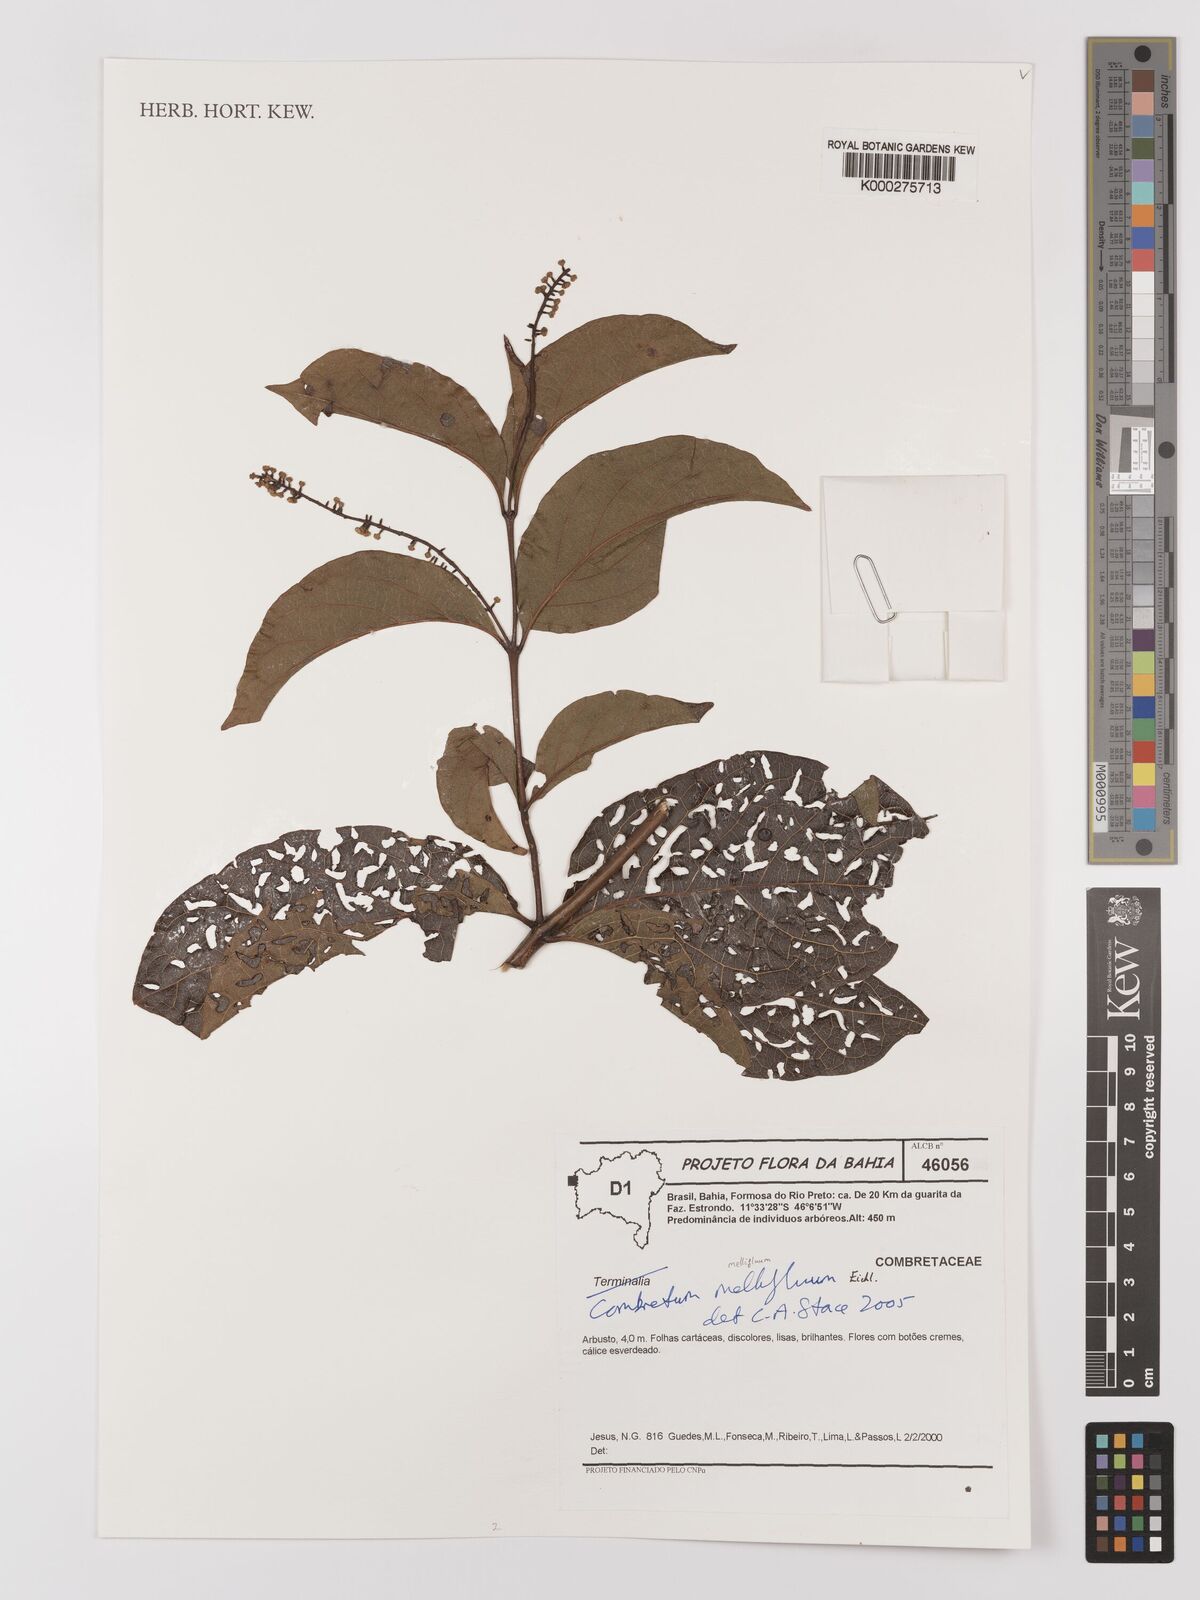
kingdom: Plantae
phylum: Tracheophyta
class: Magnoliopsida
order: Myrtales
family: Combretaceae
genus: Combretum
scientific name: Combretum mellifluum
